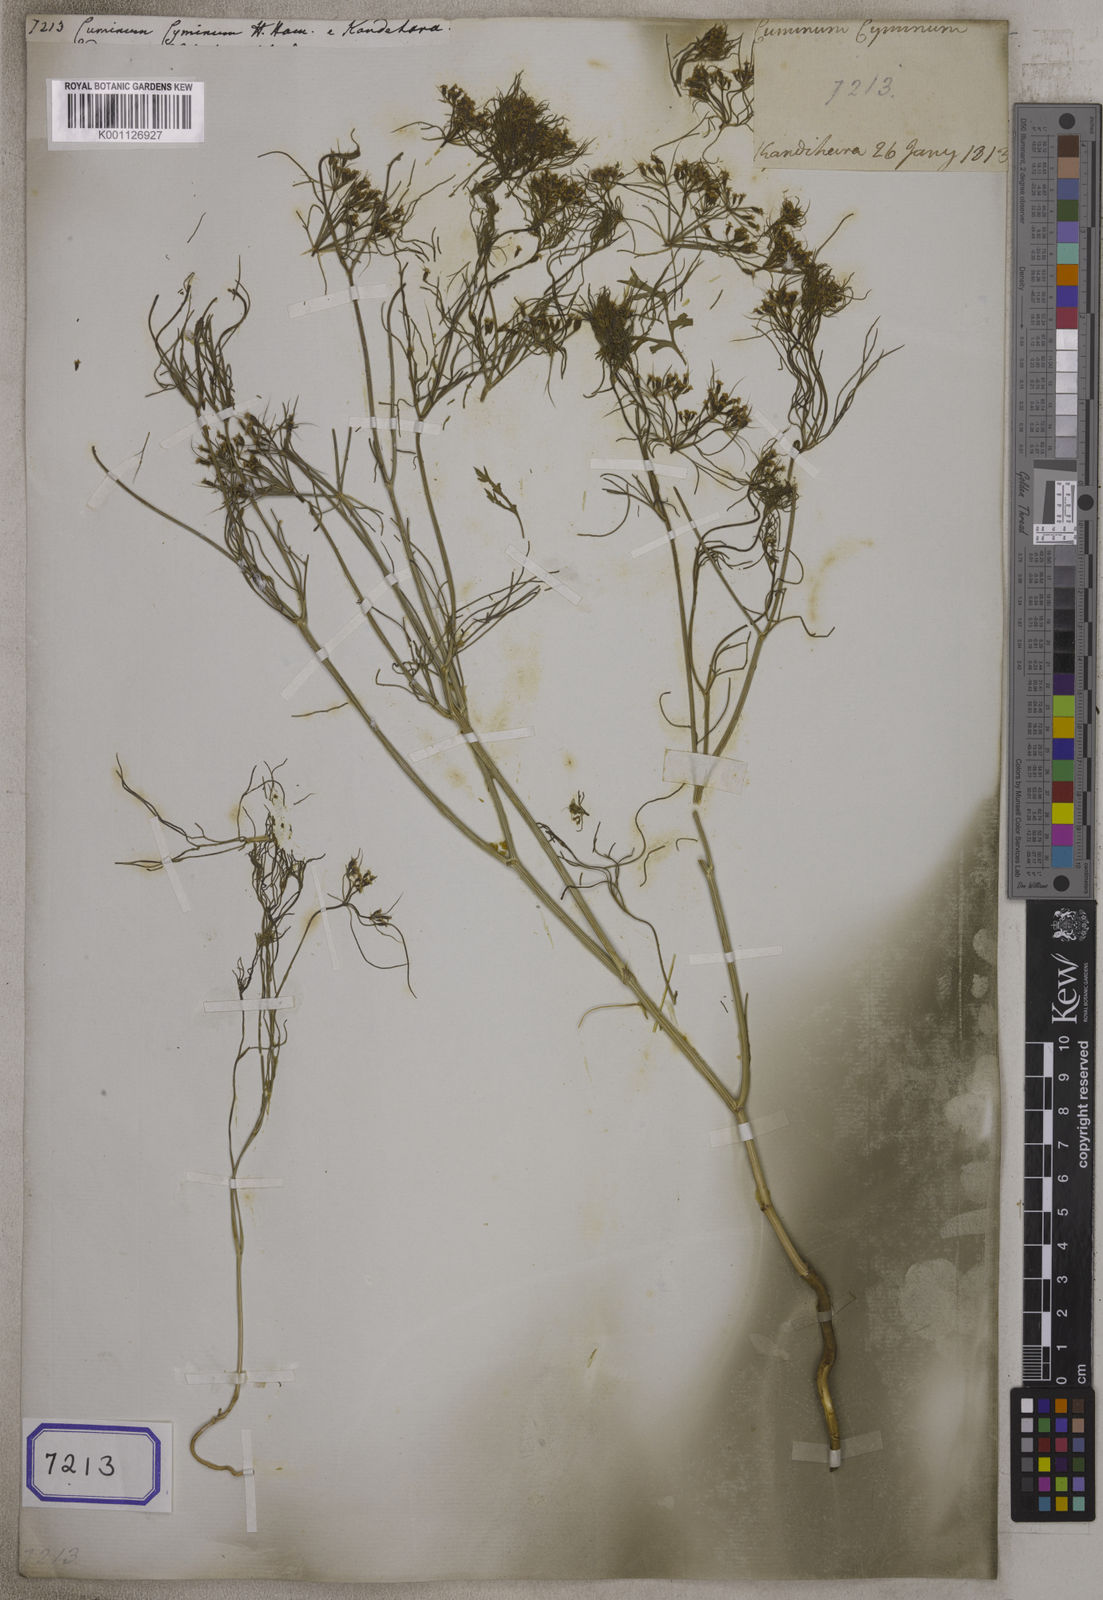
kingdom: Plantae
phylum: Tracheophyta
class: Magnoliopsida
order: Apiales
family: Apiaceae
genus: Cuminum
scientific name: Cuminum cyminum
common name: Cumin
